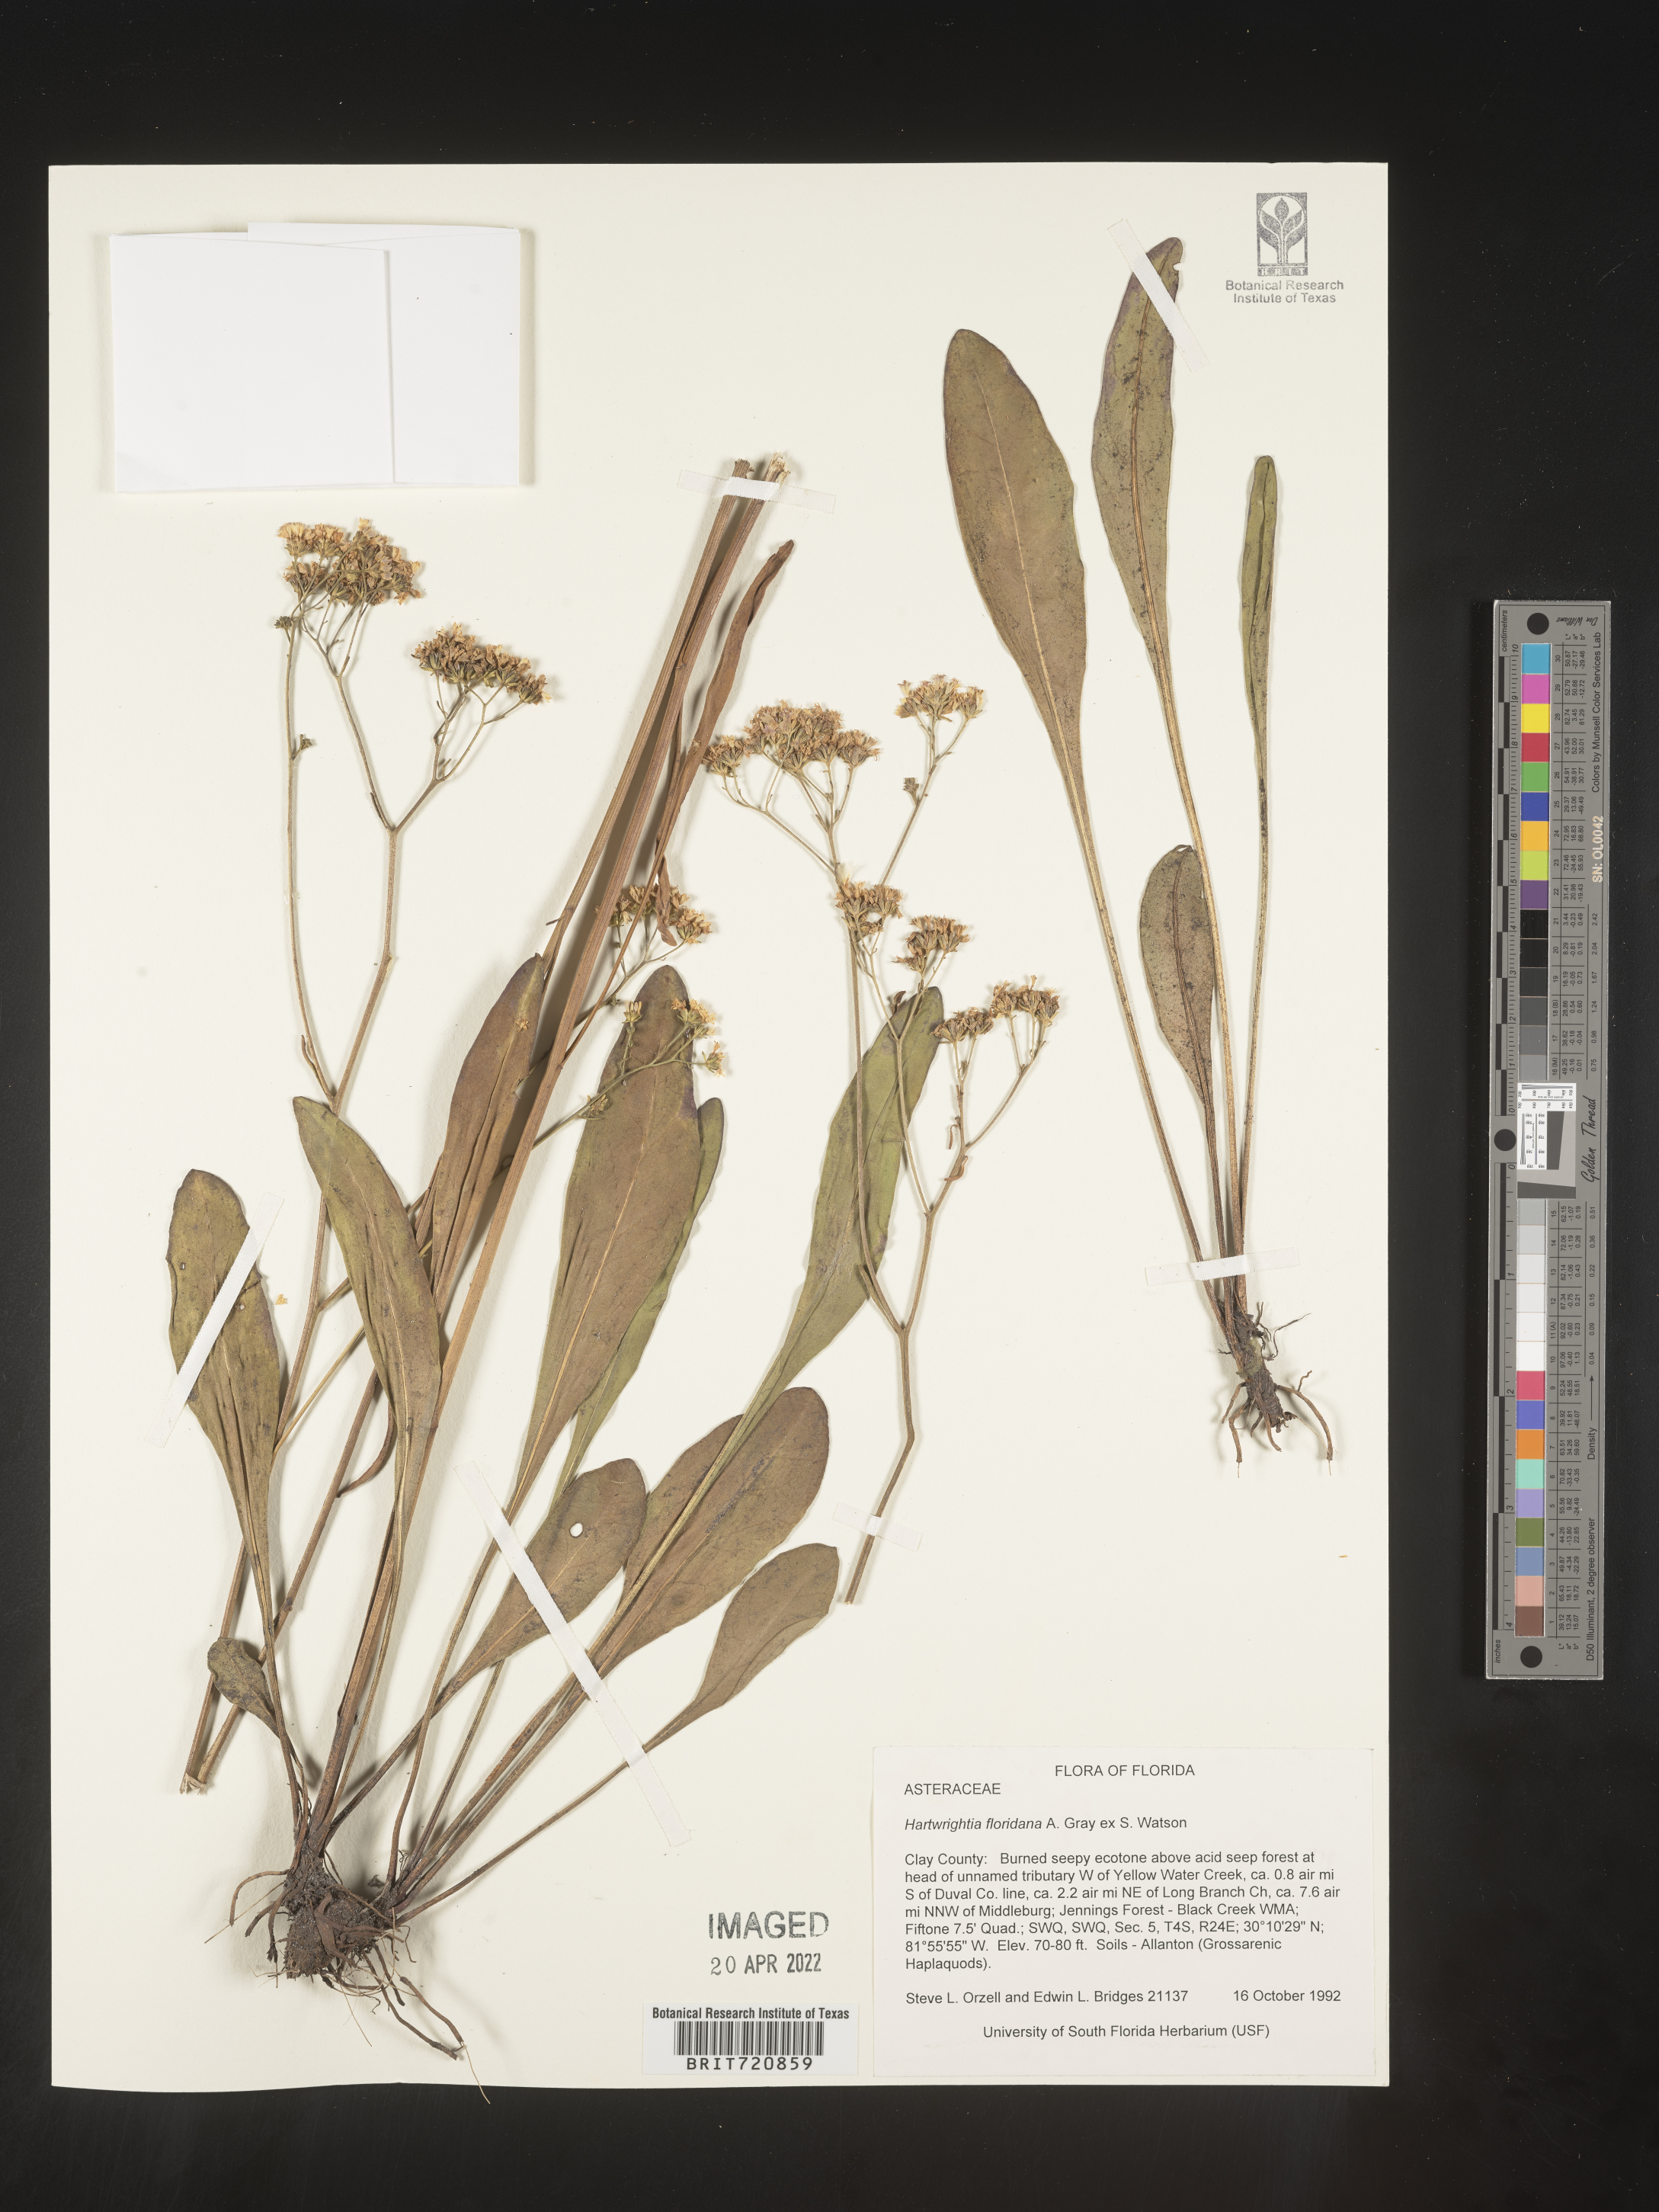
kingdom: Plantae
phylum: Tracheophyta
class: Magnoliopsida
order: Asterales
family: Asteraceae
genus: Hartwrightia
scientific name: Hartwrightia
